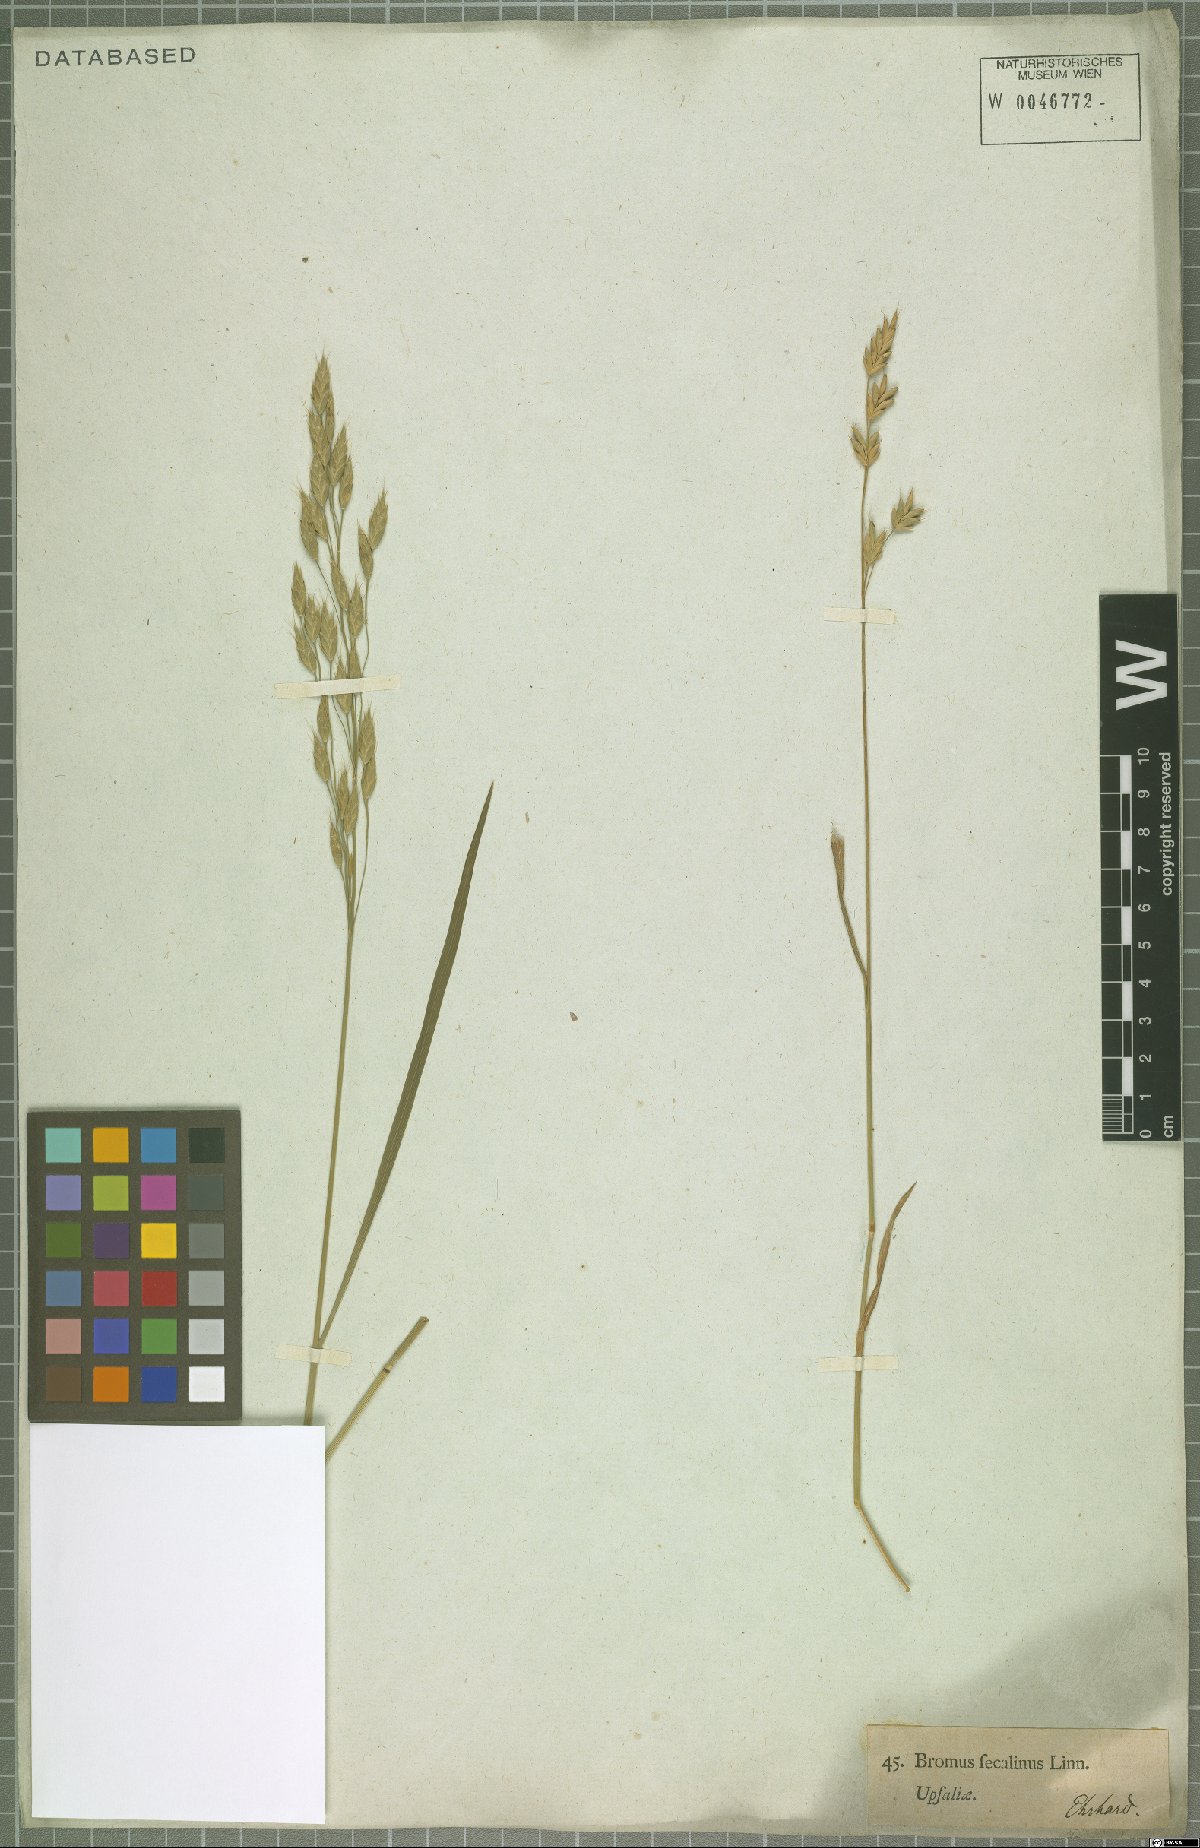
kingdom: Plantae
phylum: Tracheophyta
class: Liliopsida
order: Poales
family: Poaceae
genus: Bromus
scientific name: Bromus secalinus
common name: Rye brome
